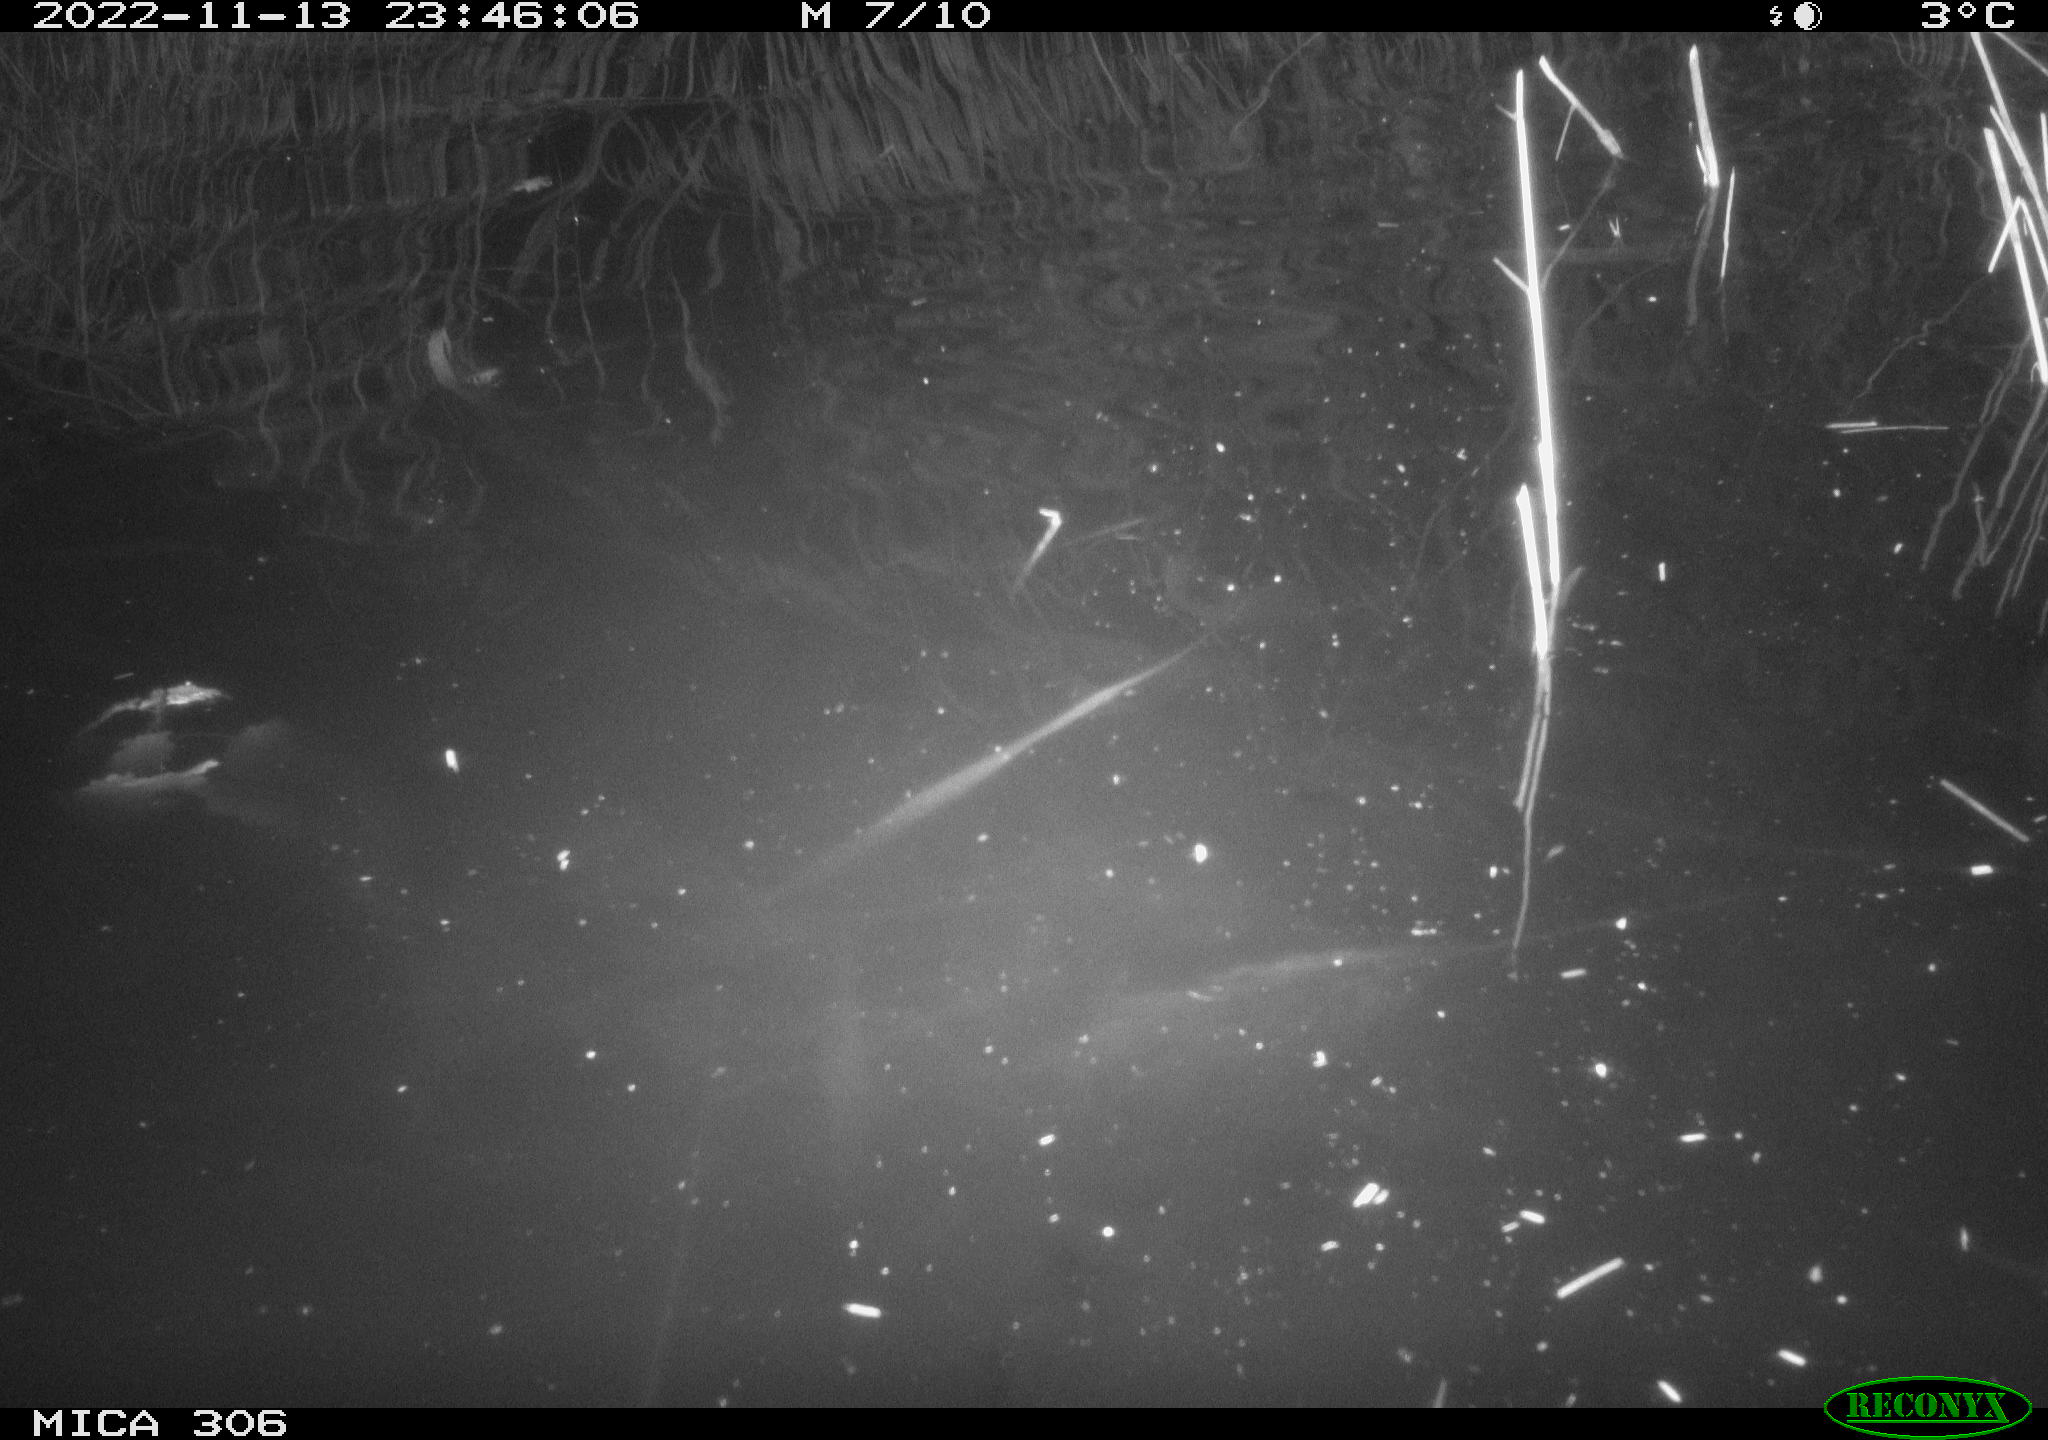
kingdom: Animalia
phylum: Chordata
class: Mammalia
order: Rodentia
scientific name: Rodentia
